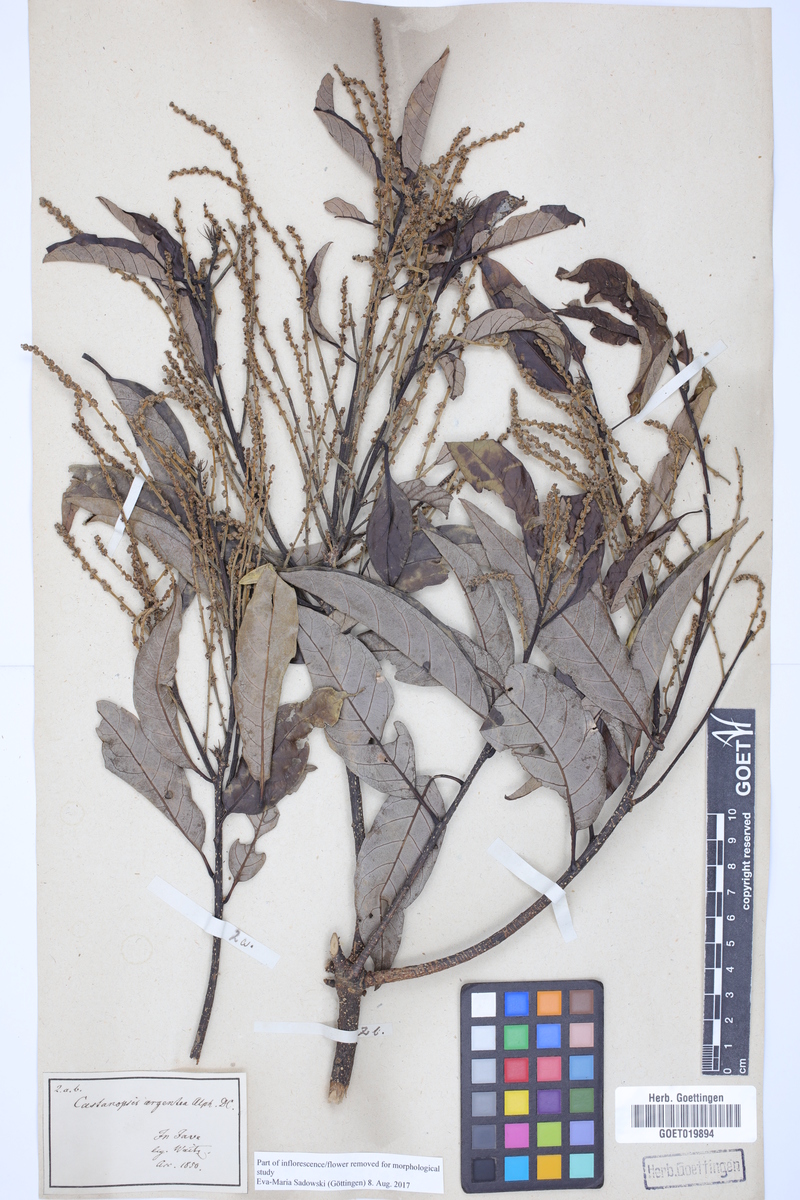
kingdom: Plantae
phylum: Tracheophyta
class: Magnoliopsida
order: Fagales
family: Fagaceae
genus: Castanopsis
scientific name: Castanopsis argentea
